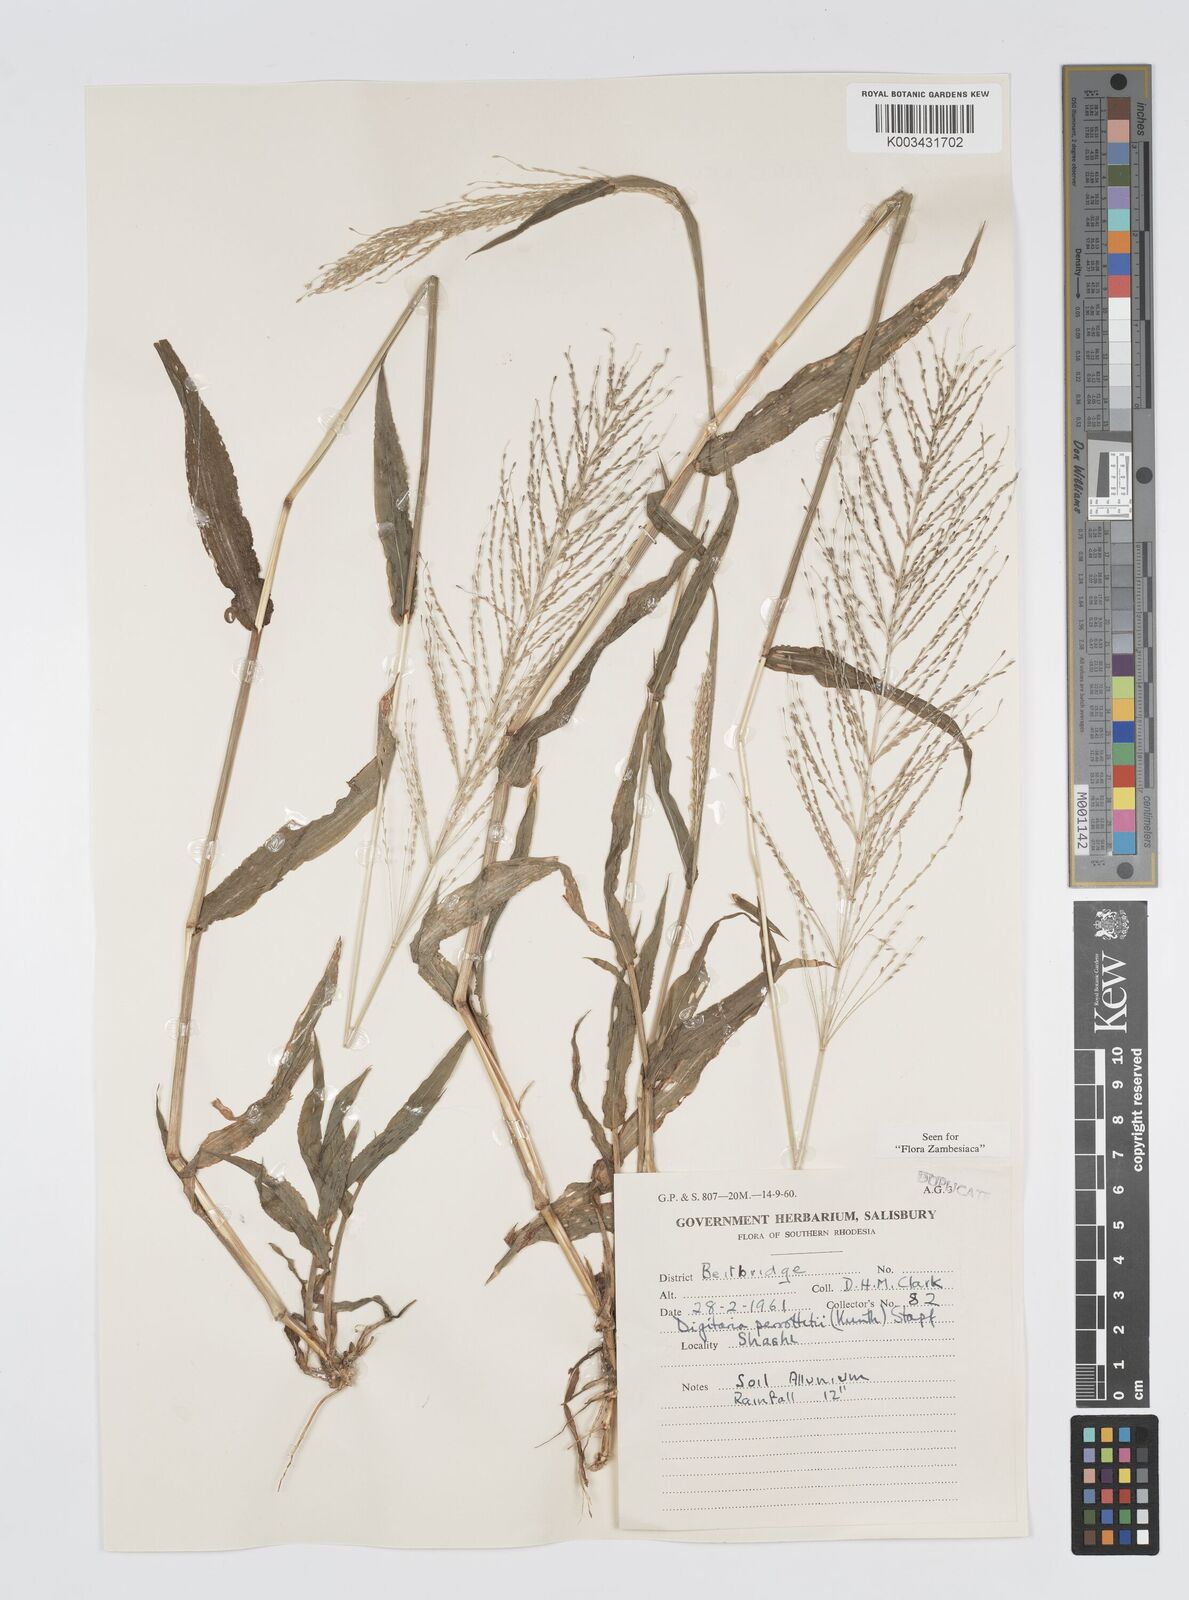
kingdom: Plantae
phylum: Tracheophyta
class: Liliopsida
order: Poales
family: Poaceae
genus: Digitaria
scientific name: Digitaria perrottetii
